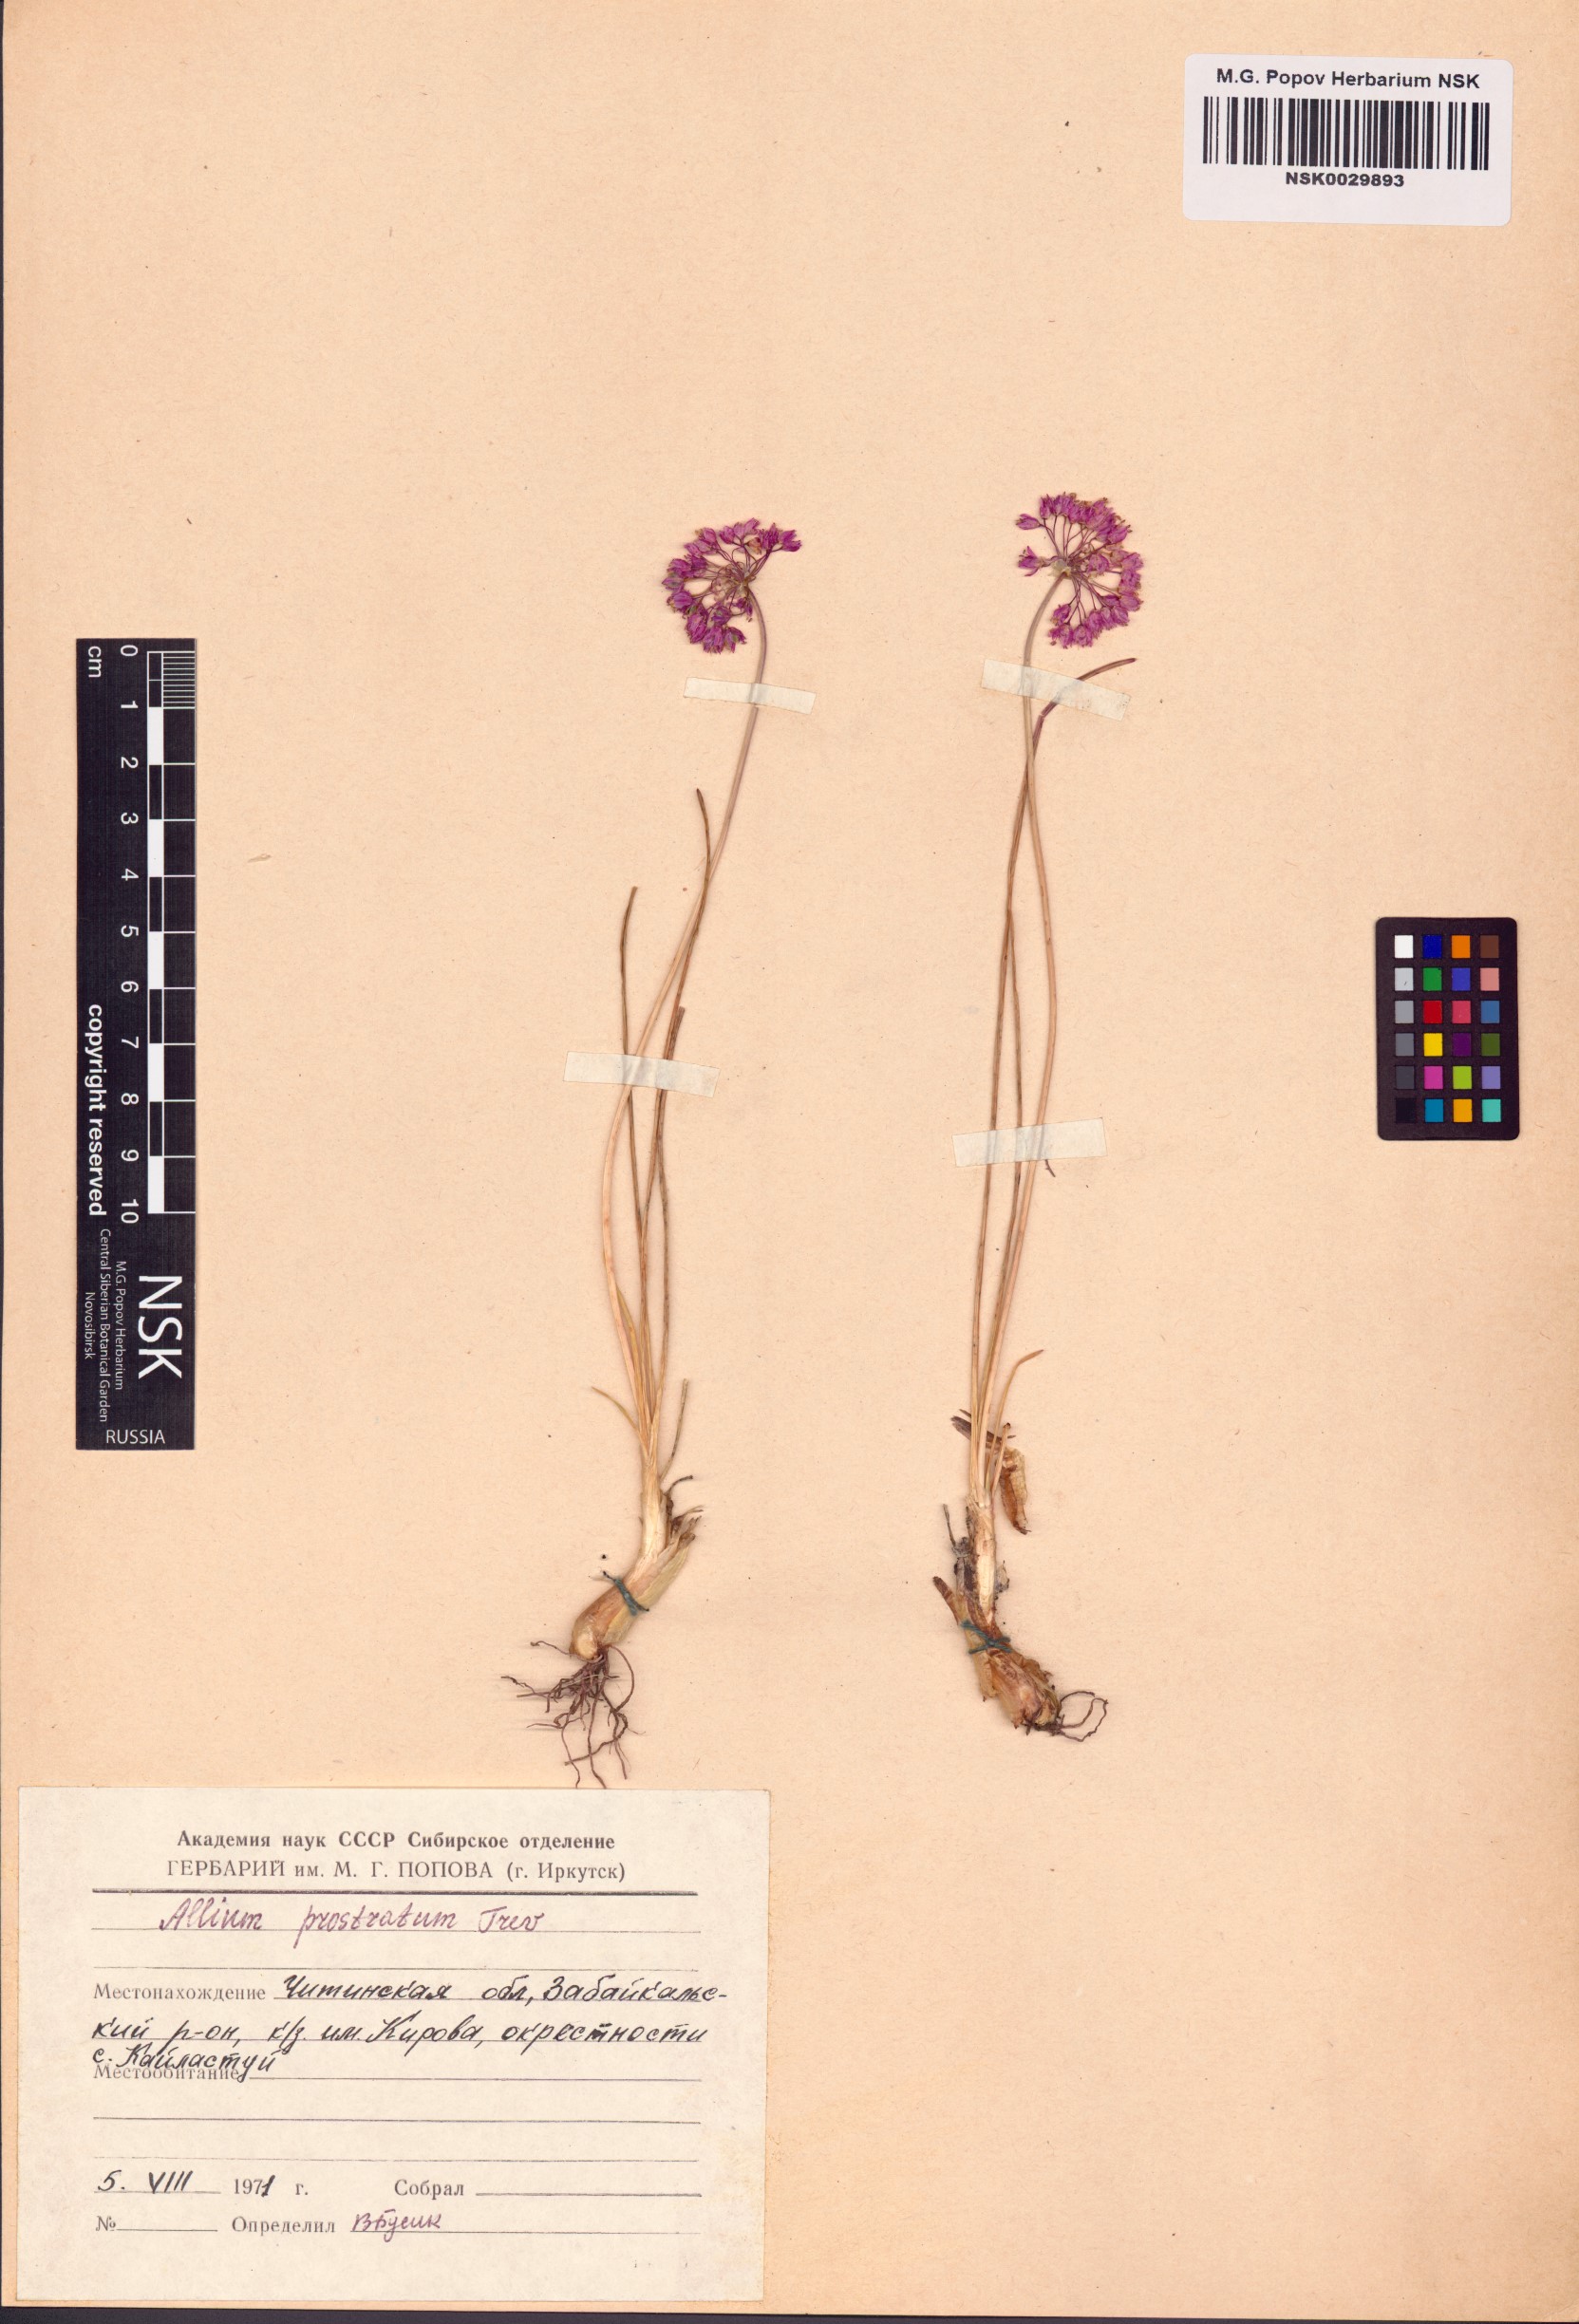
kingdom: Plantae
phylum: Tracheophyta
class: Liliopsida
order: Asparagales
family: Amaryllidaceae
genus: Allium
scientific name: Allium prostratum
